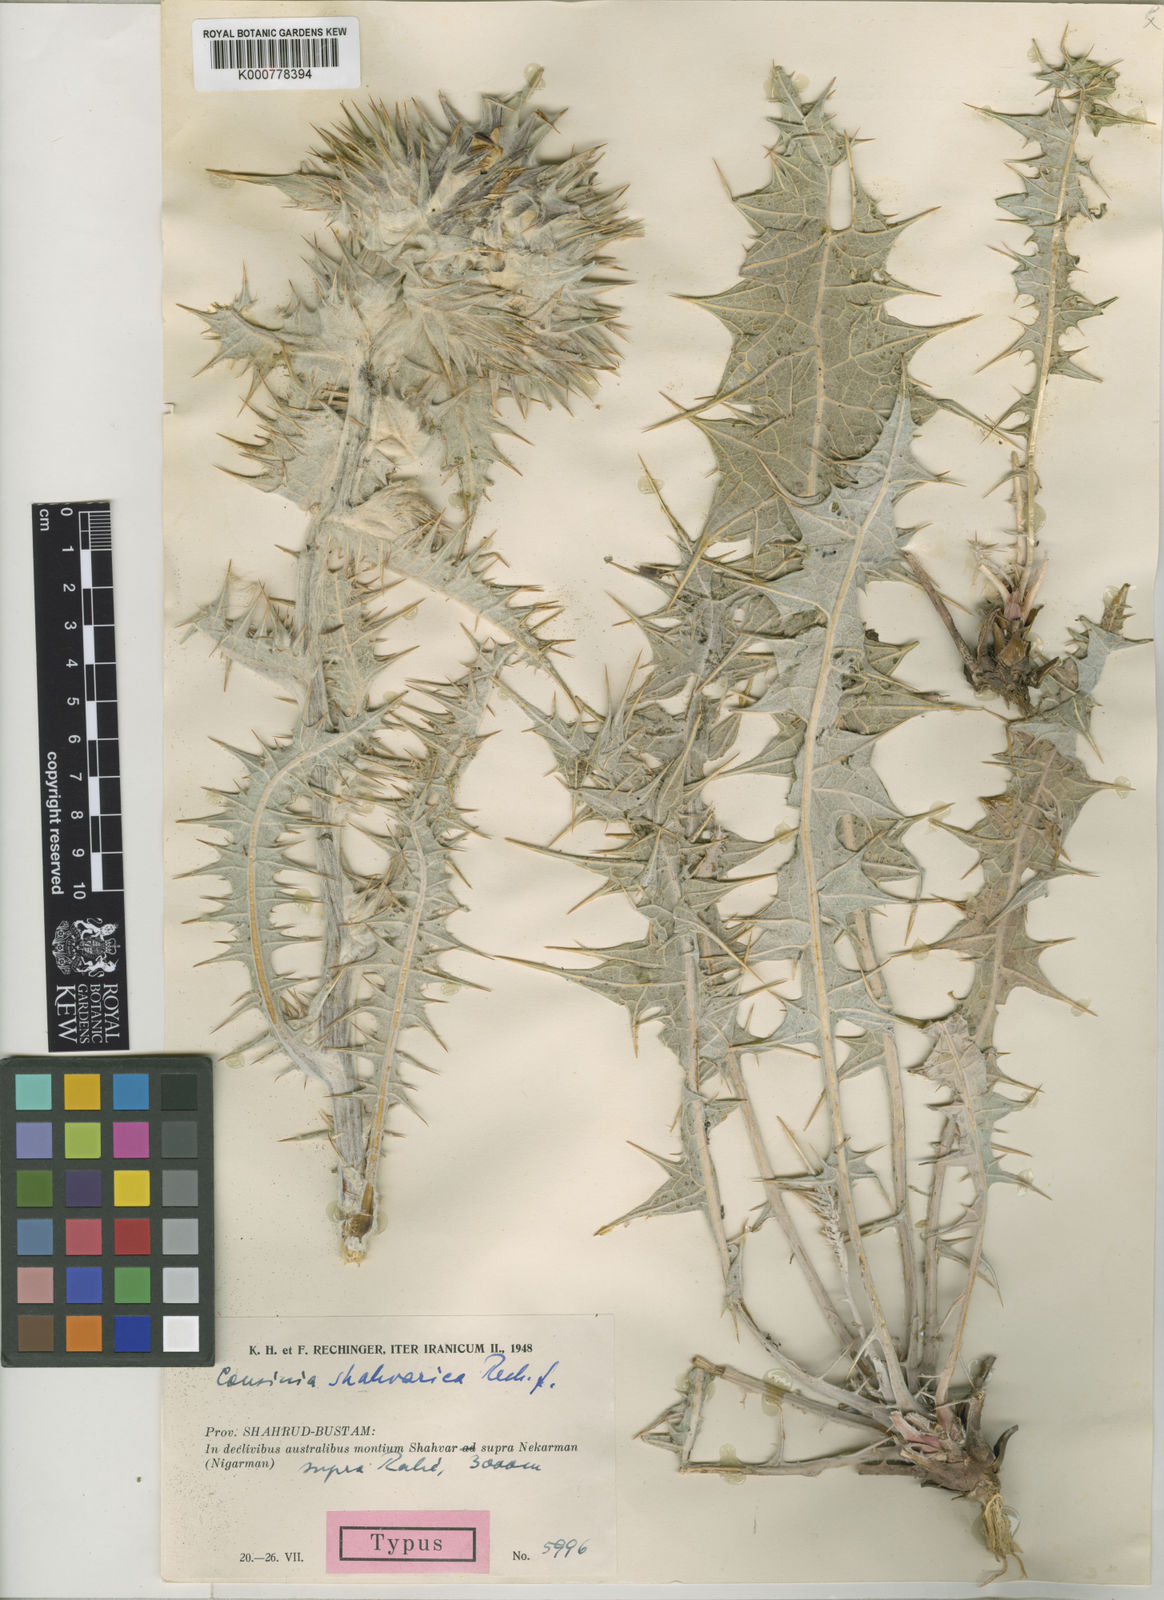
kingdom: Plantae
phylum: Tracheophyta
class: Magnoliopsida
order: Asterales
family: Asteraceae
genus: Cousinia
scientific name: Cousinia shahvarica
